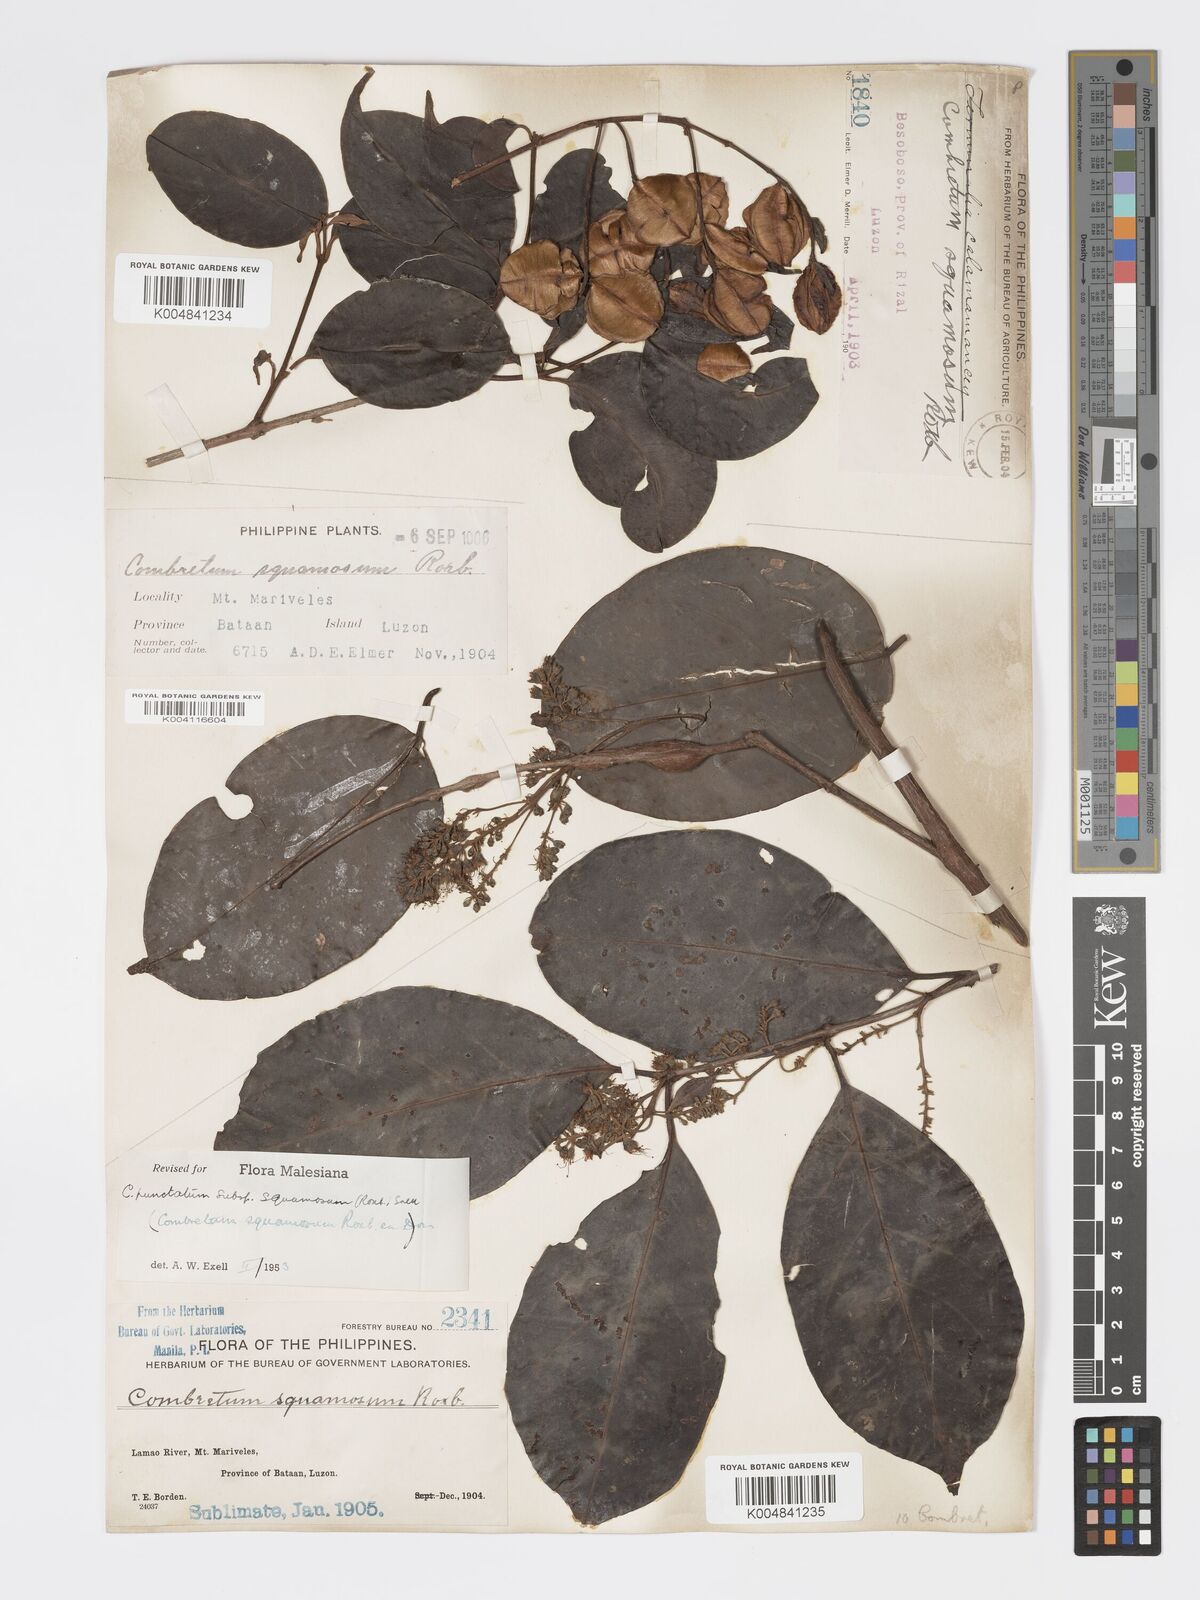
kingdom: Plantae
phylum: Tracheophyta
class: Magnoliopsida
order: Myrtales
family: Combretaceae
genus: Combretum
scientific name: Combretum
